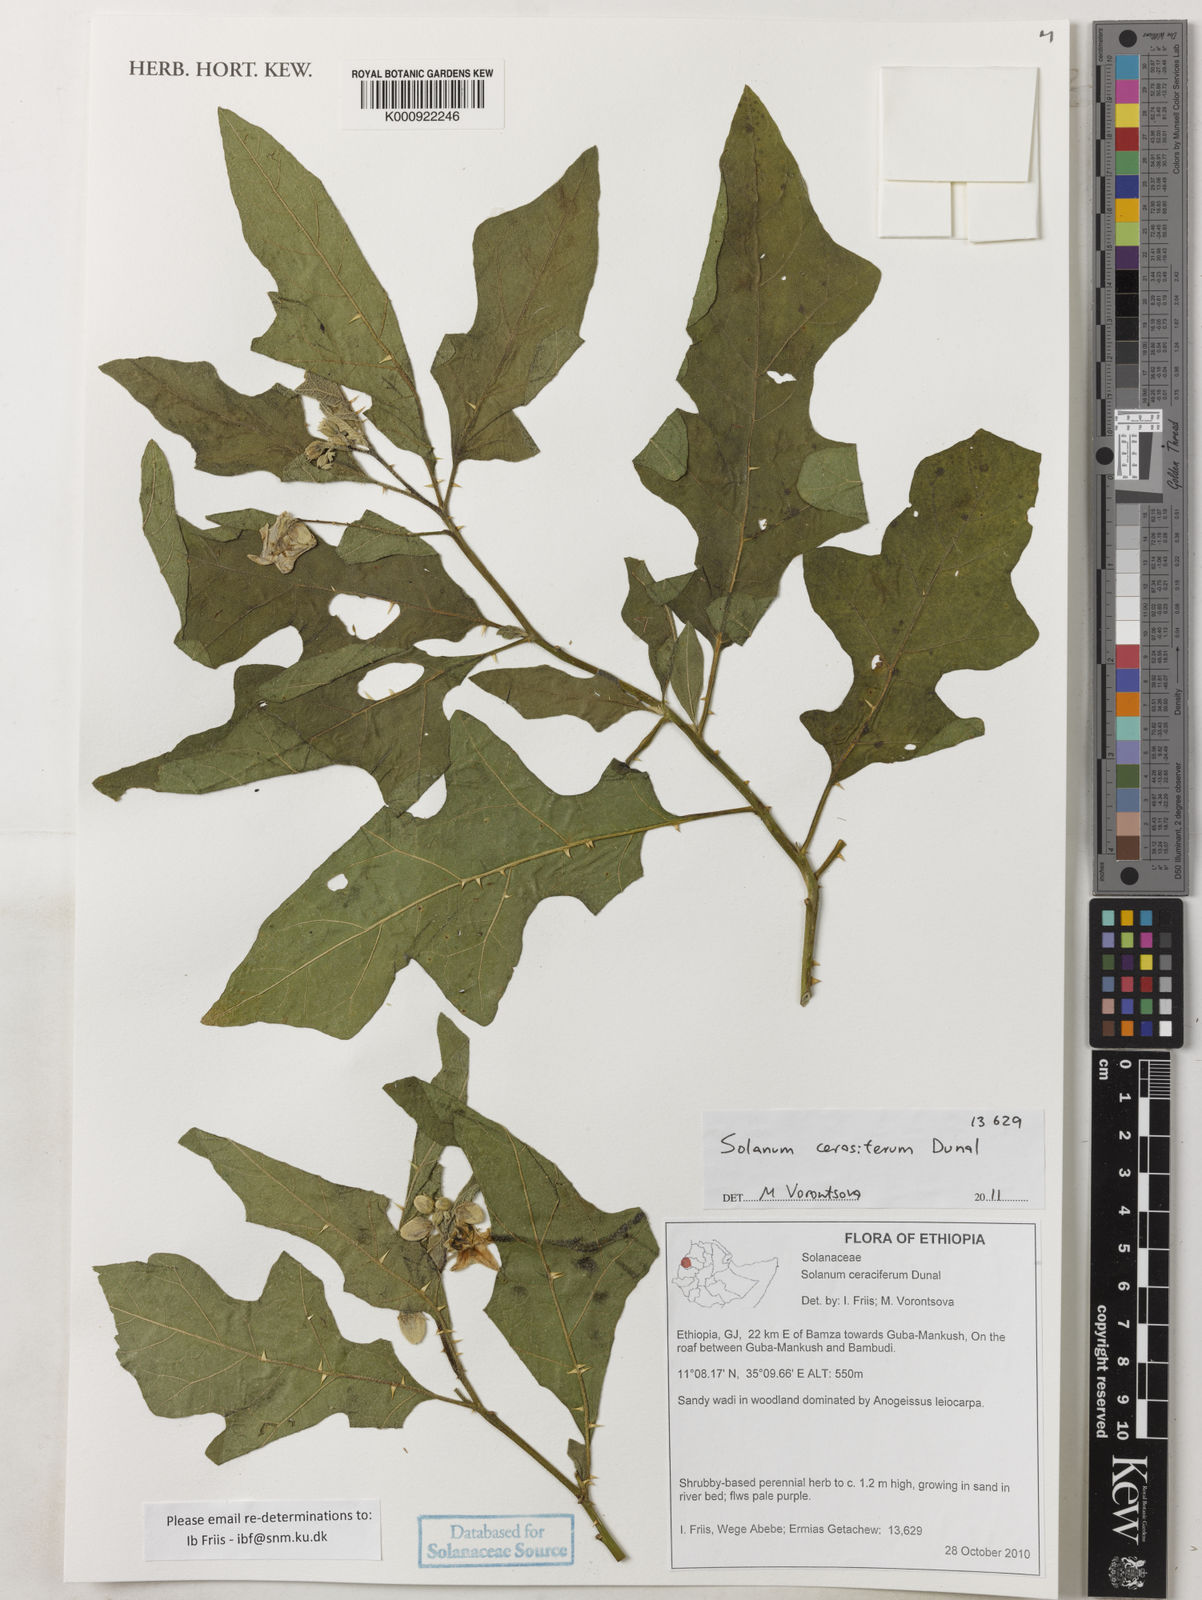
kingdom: Plantae
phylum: Tracheophyta
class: Magnoliopsida
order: Solanales
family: Solanaceae
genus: Solanum
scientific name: Solanum cerasiferum
